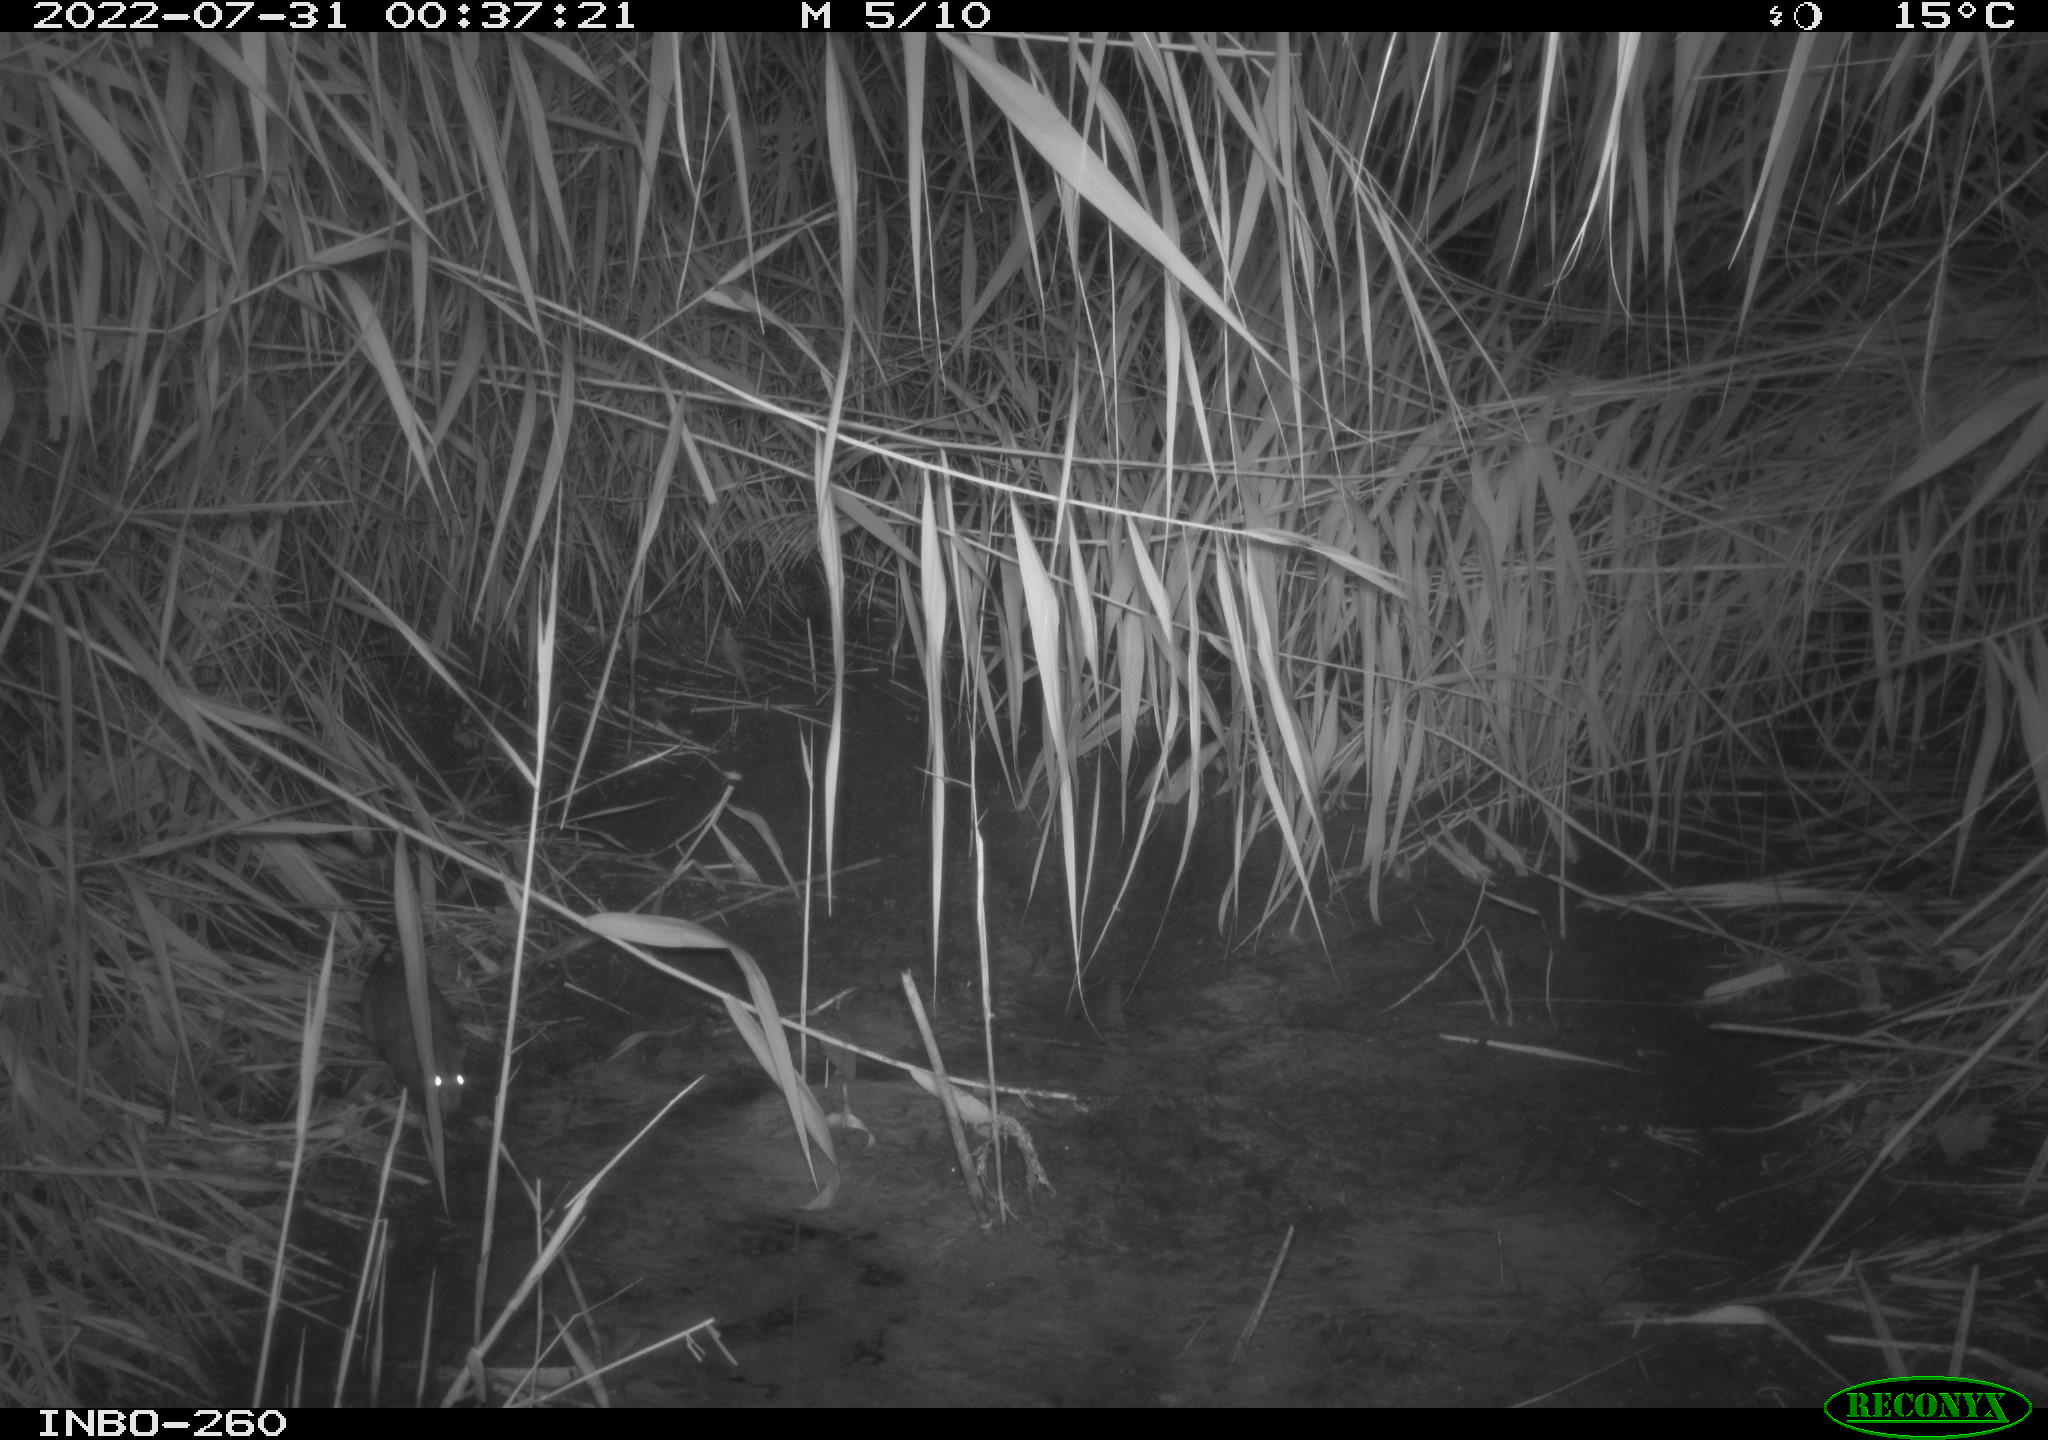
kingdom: Animalia
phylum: Chordata
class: Mammalia
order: Rodentia
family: Muridae
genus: Rattus
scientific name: Rattus norvegicus
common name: Brown rat
